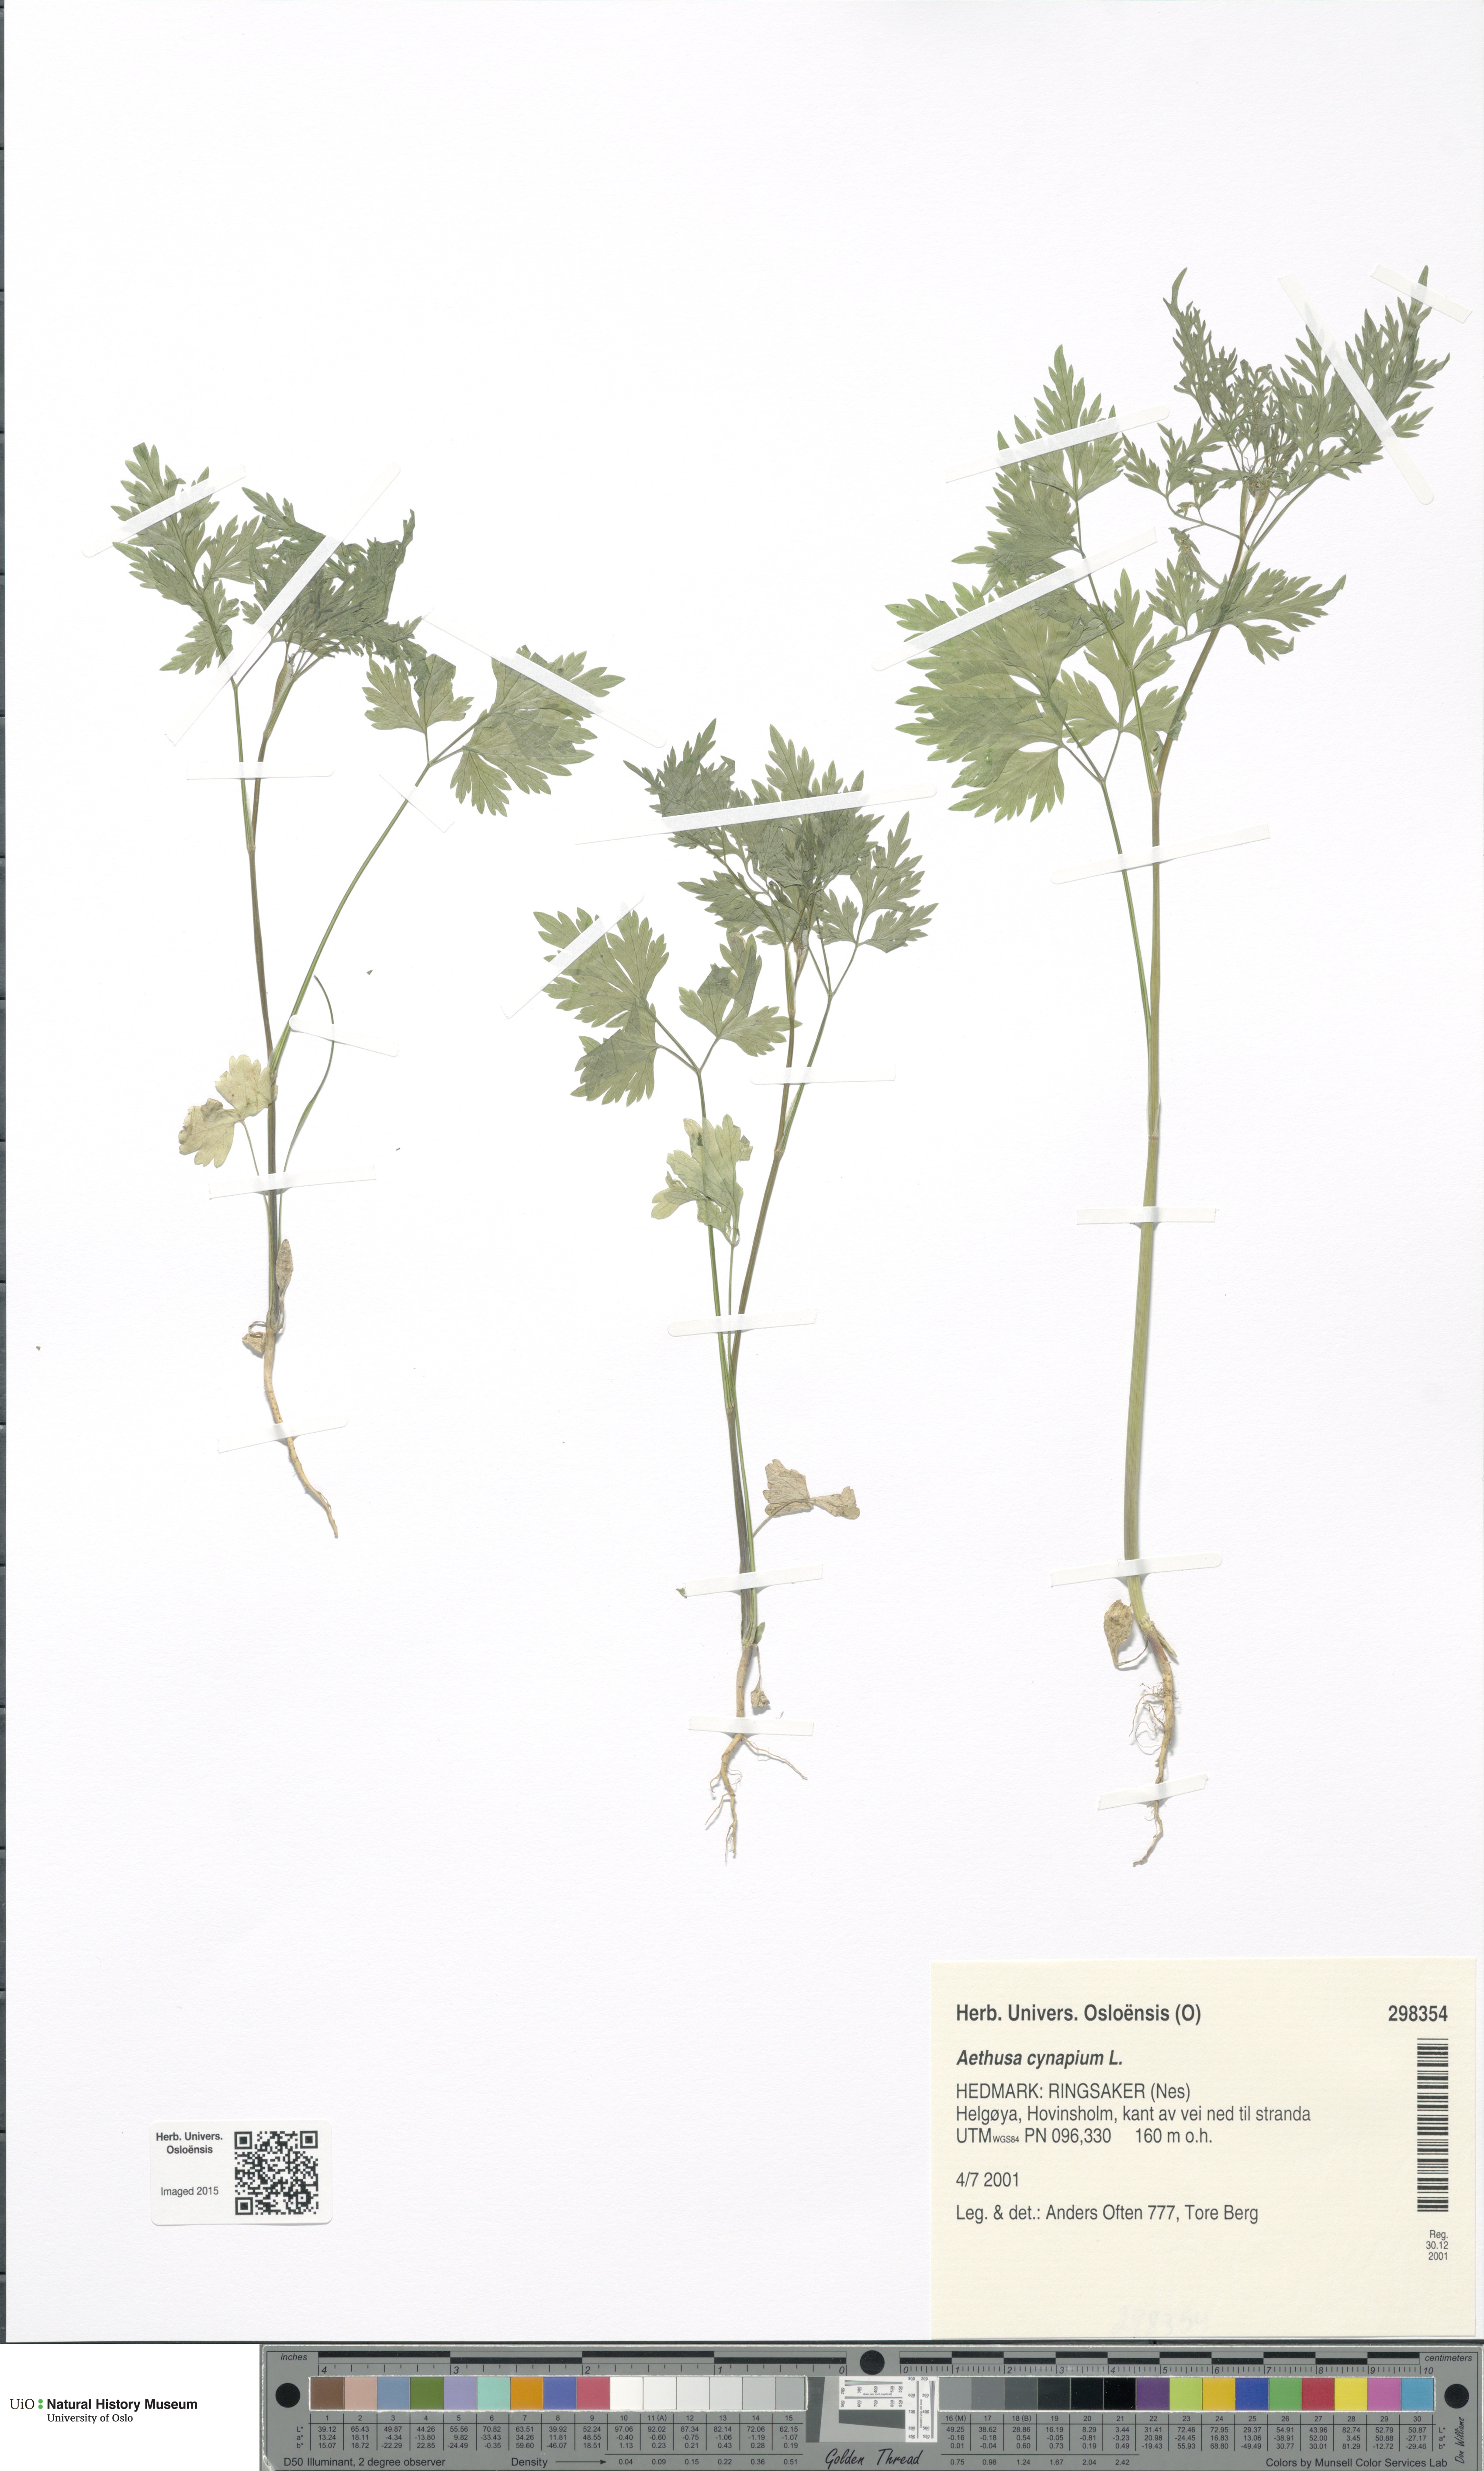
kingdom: Plantae
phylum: Tracheophyta
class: Magnoliopsida
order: Apiales
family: Apiaceae
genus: Aethusa
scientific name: Aethusa cynapium
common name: Fool's parsley
